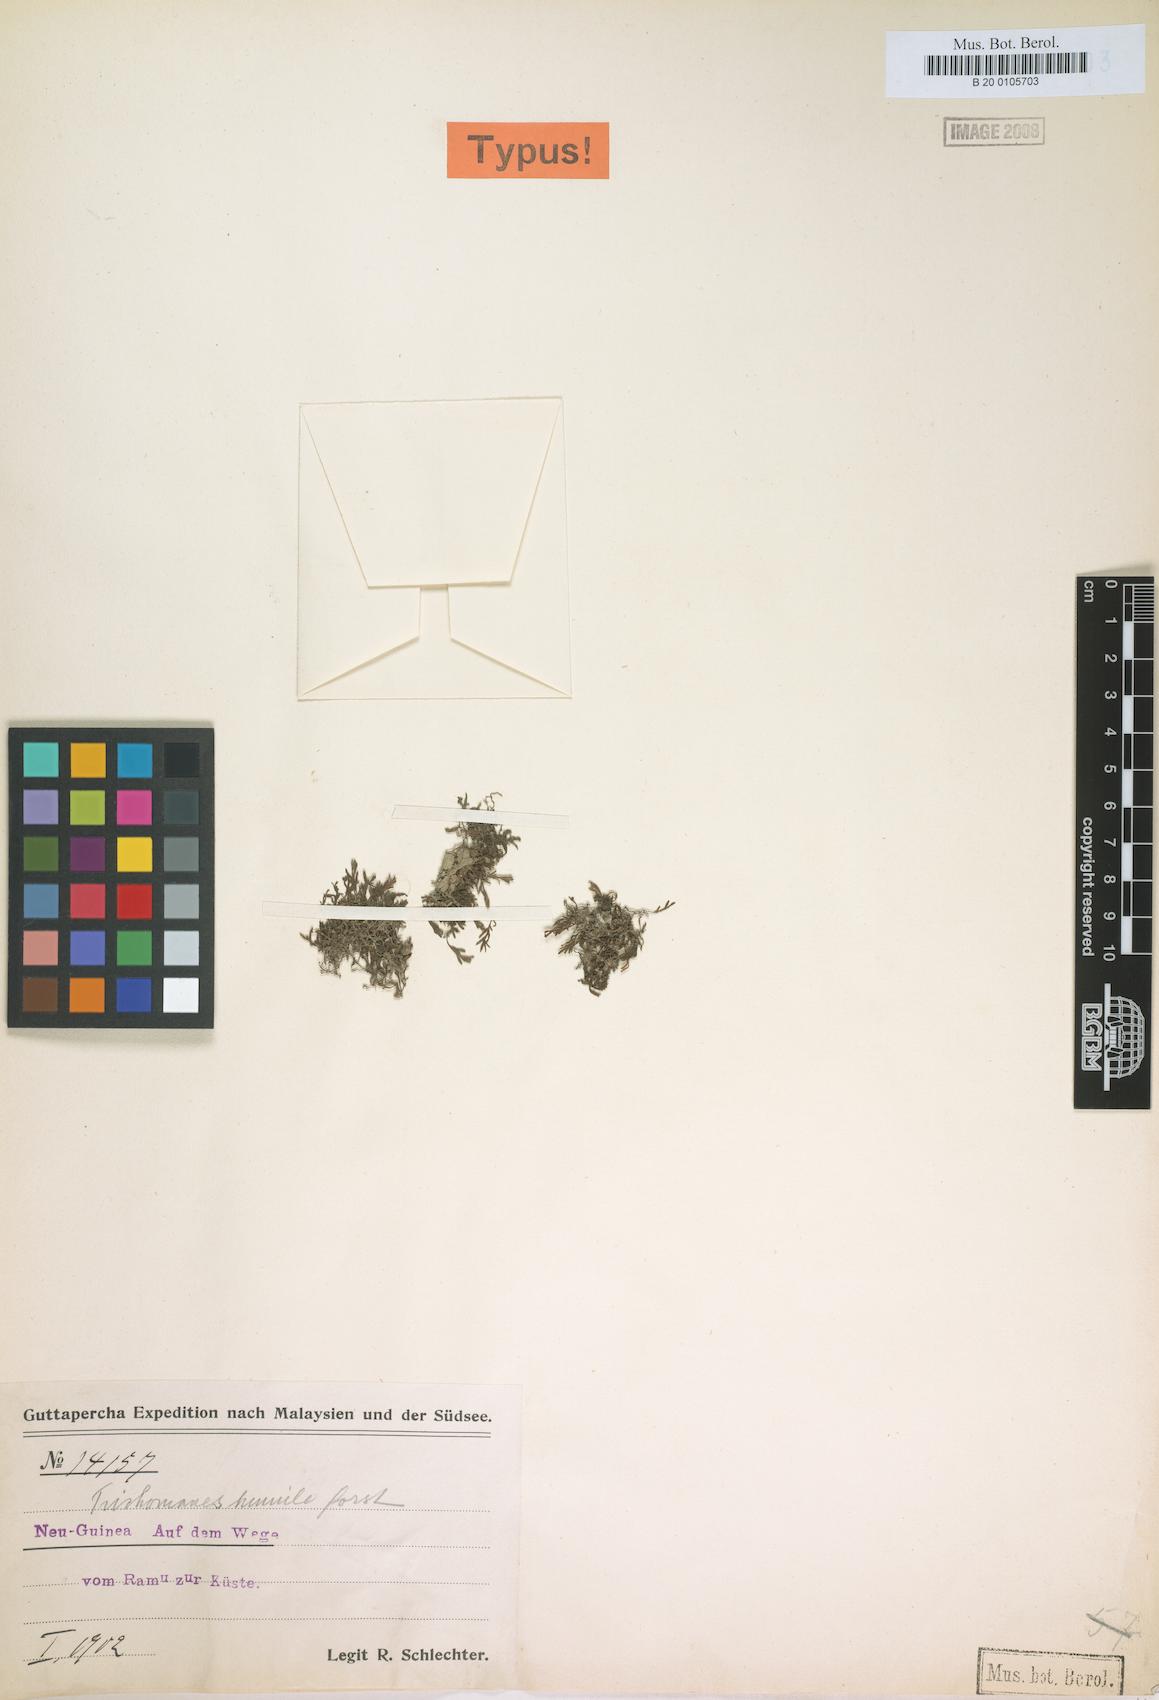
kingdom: Plantae
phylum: Tracheophyta
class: Polypodiopsida
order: Hymenophyllales
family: Hymenophyllaceae
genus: Crepidomanes
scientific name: Crepidomanes kurzii
